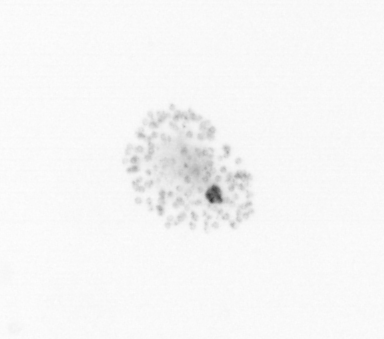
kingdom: Chromista
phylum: Ochrophyta
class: Bacillariophyceae
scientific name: Bacillariophyceae
